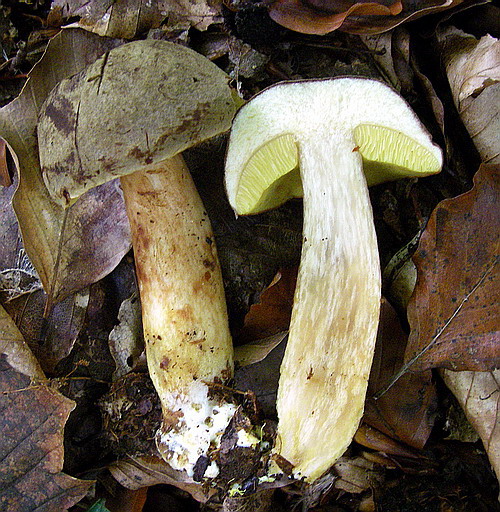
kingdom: Fungi
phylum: Basidiomycota
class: Agaricomycetes
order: Boletales
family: Boletaceae
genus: Xerocomus
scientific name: Xerocomus ferrugineus
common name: vaskeskinds-rørhat
